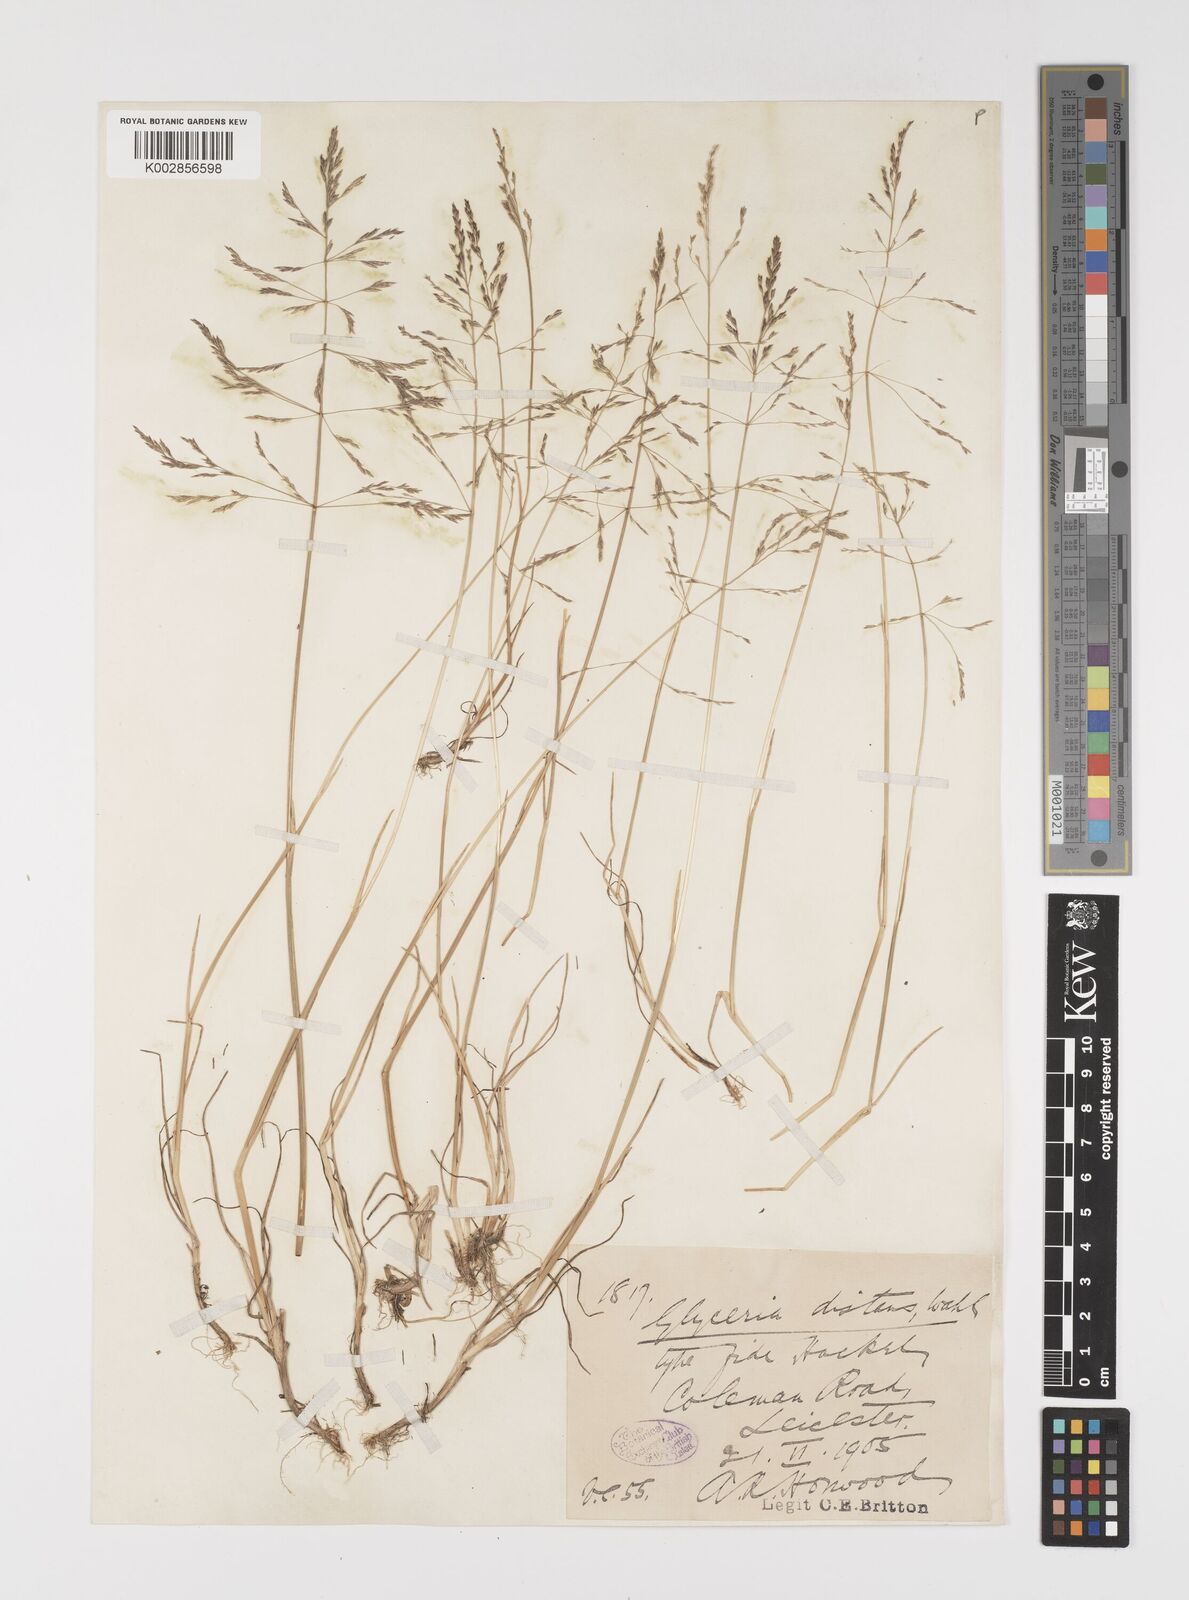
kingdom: Plantae
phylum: Tracheophyta
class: Liliopsida
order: Poales
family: Poaceae
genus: Puccinellia
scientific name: Puccinellia distans
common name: Weeping alkaligrass
